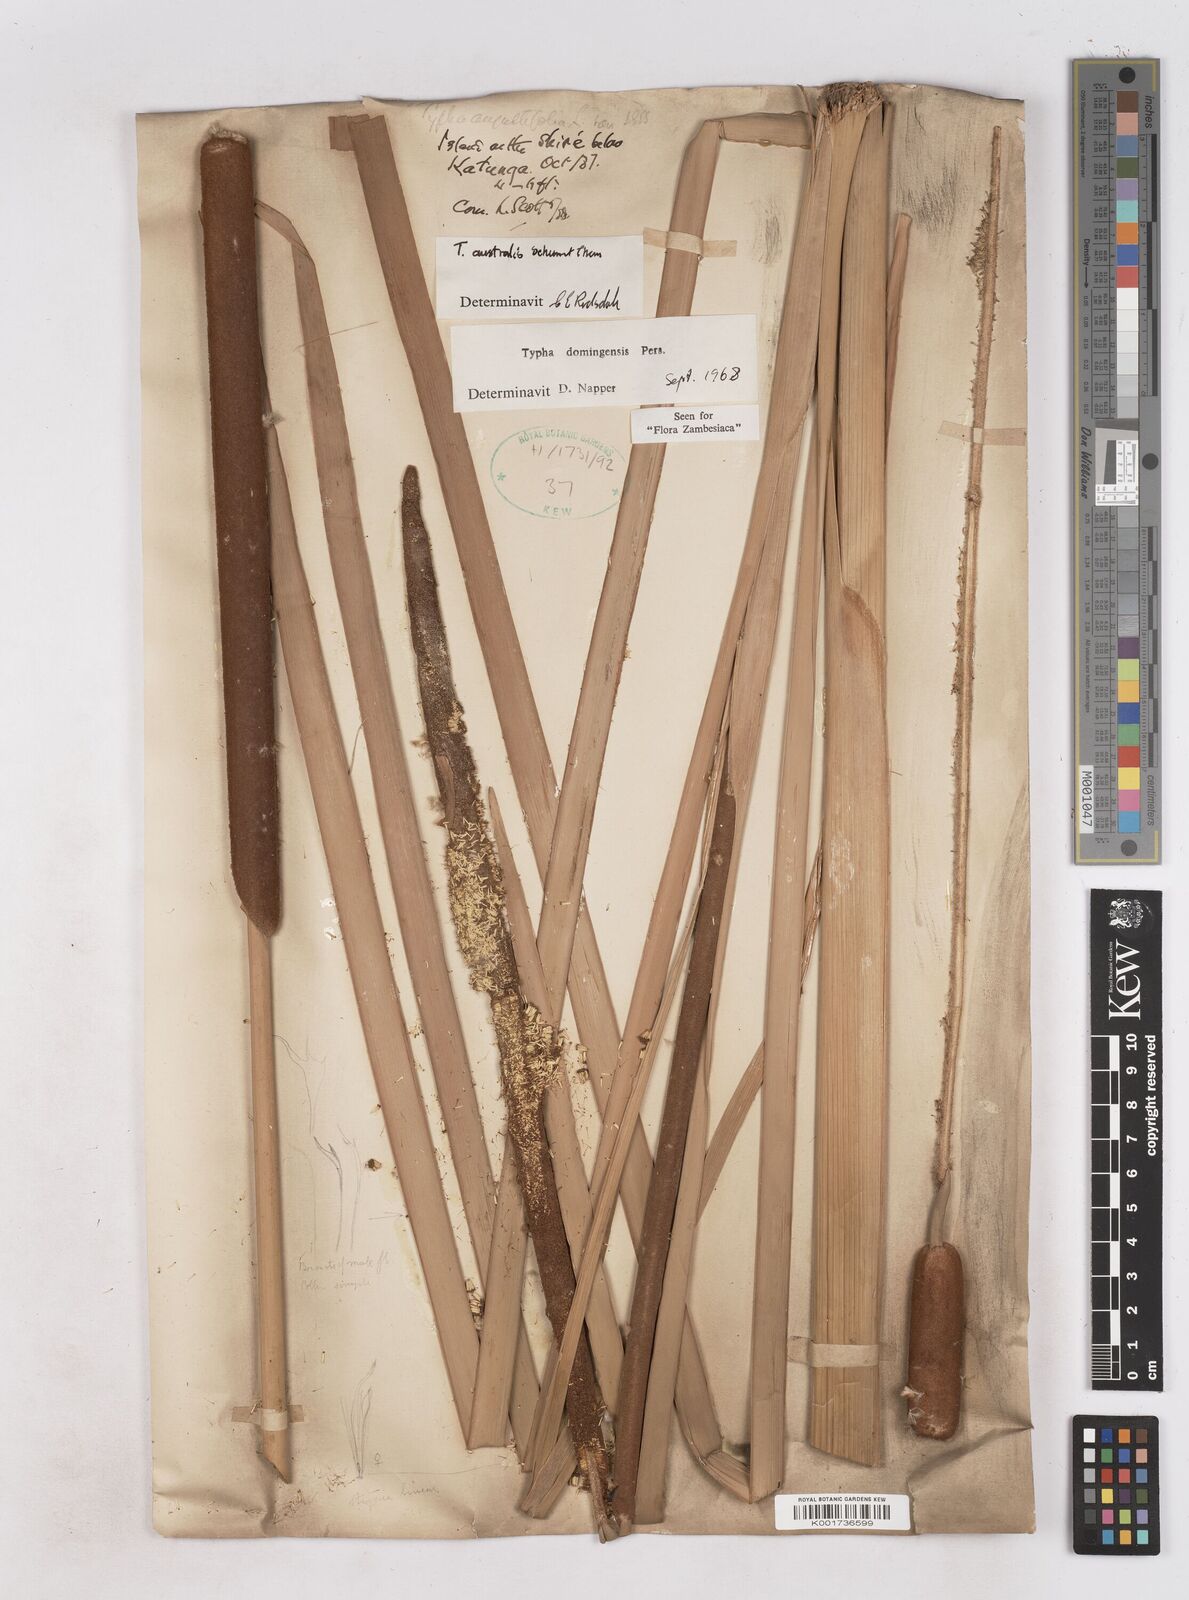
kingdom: Plantae
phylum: Tracheophyta
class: Liliopsida
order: Poales
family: Typhaceae
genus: Typha
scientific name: Typha domingensis
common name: Southern cattail
